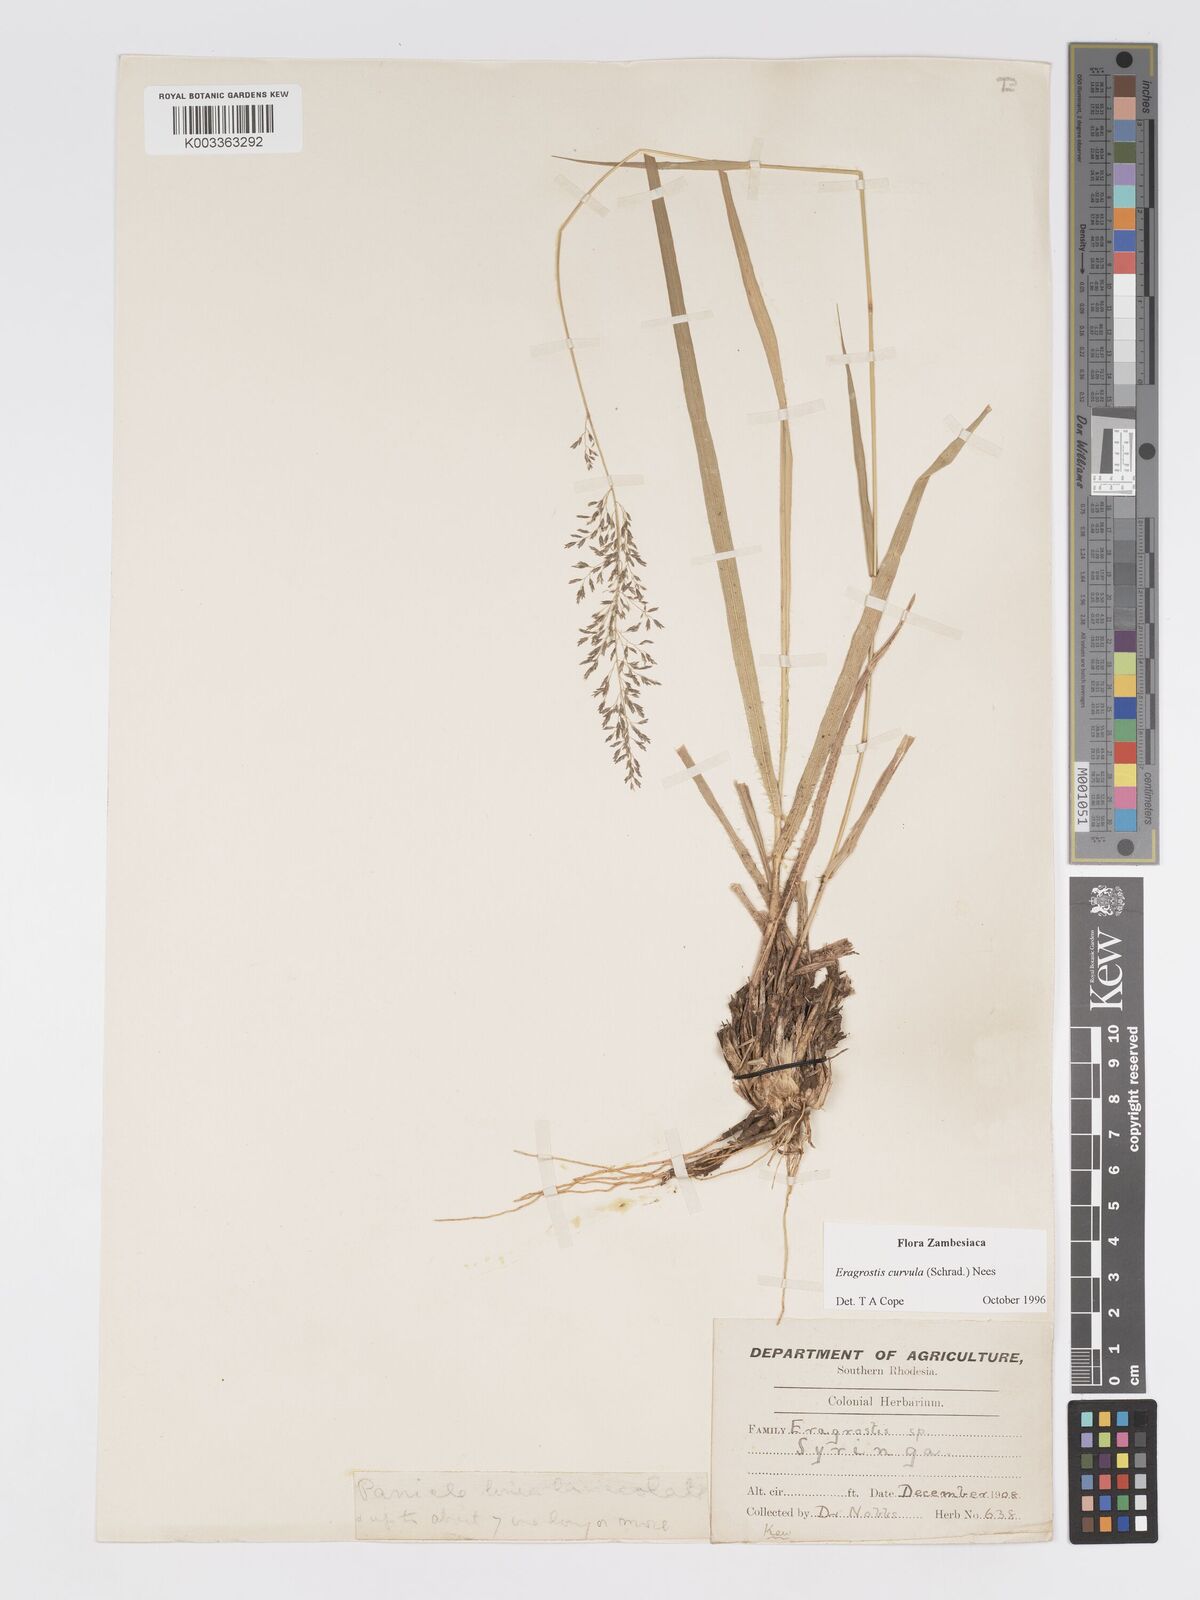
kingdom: Plantae
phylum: Tracheophyta
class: Liliopsida
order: Poales
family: Poaceae
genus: Eragrostis
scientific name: Eragrostis curvula
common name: African love-grass
